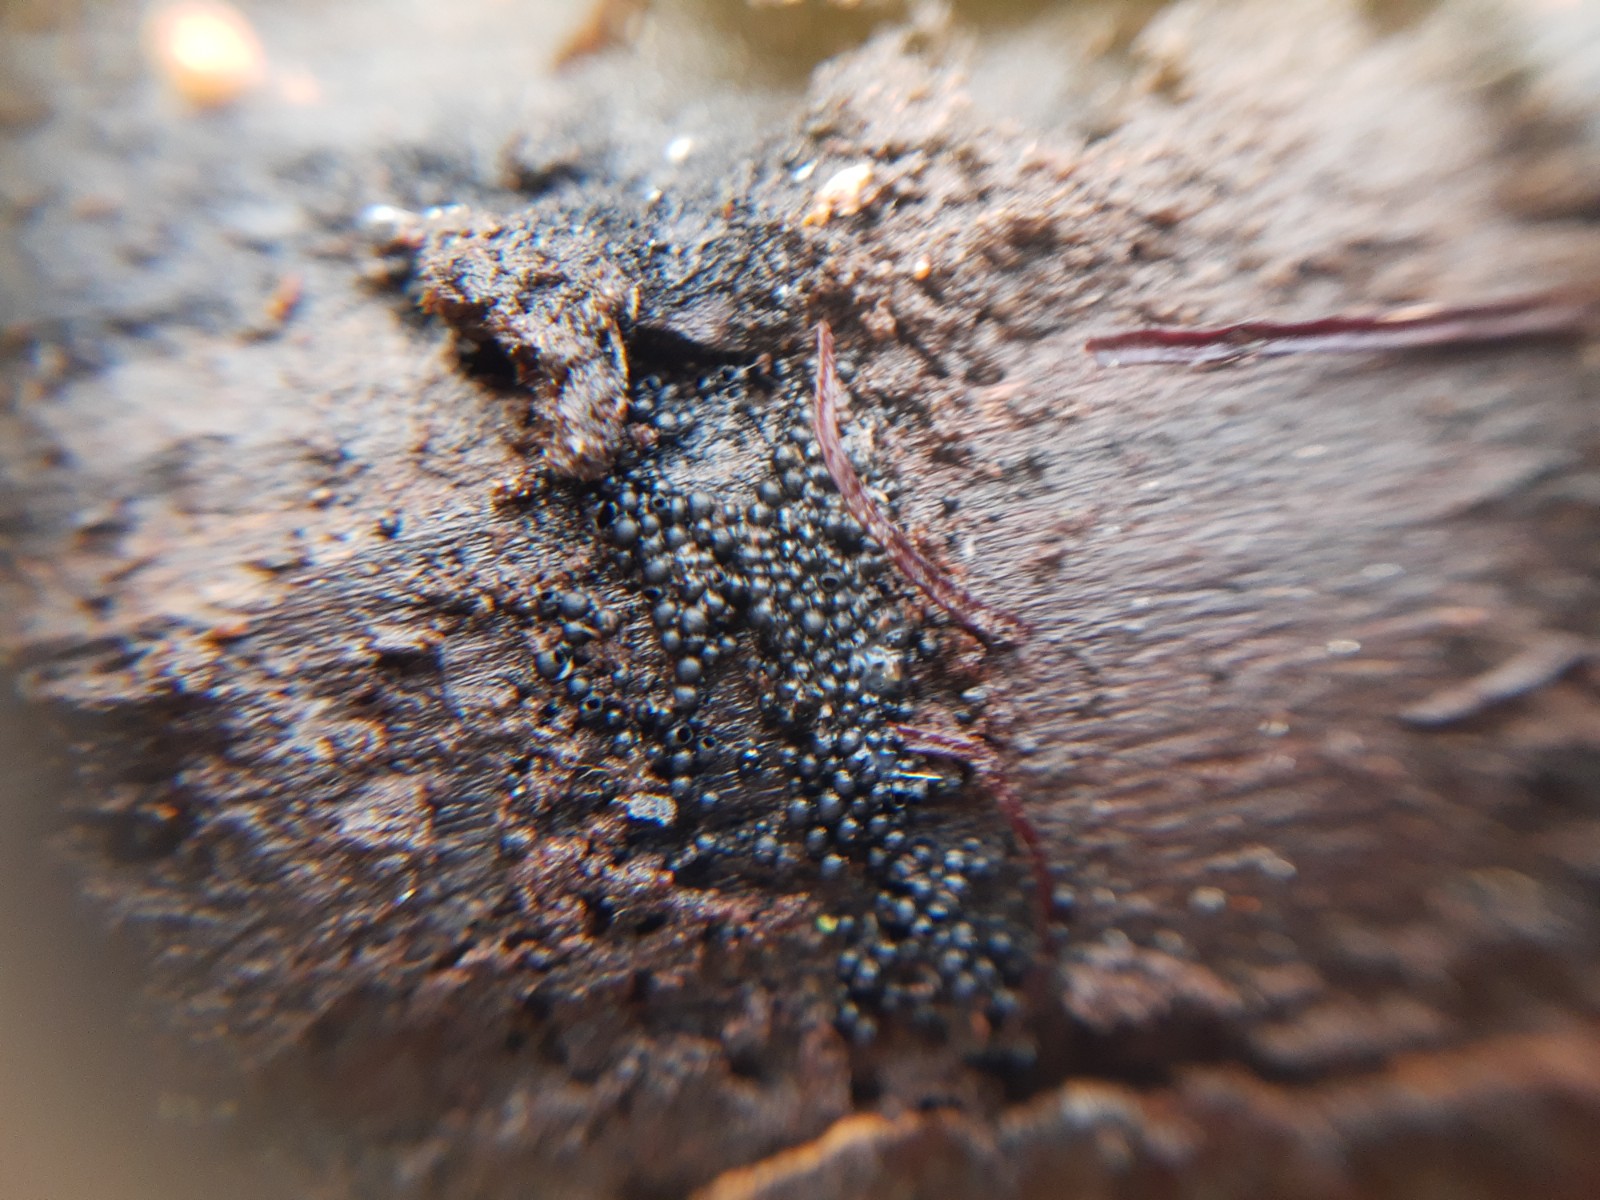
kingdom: Fungi
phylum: Ascomycota
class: Sordariomycetes
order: Sordariales
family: Helminthosphaeriaceae
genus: Ruzenia
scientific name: Ruzenia spermoides
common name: glat børstekerne
